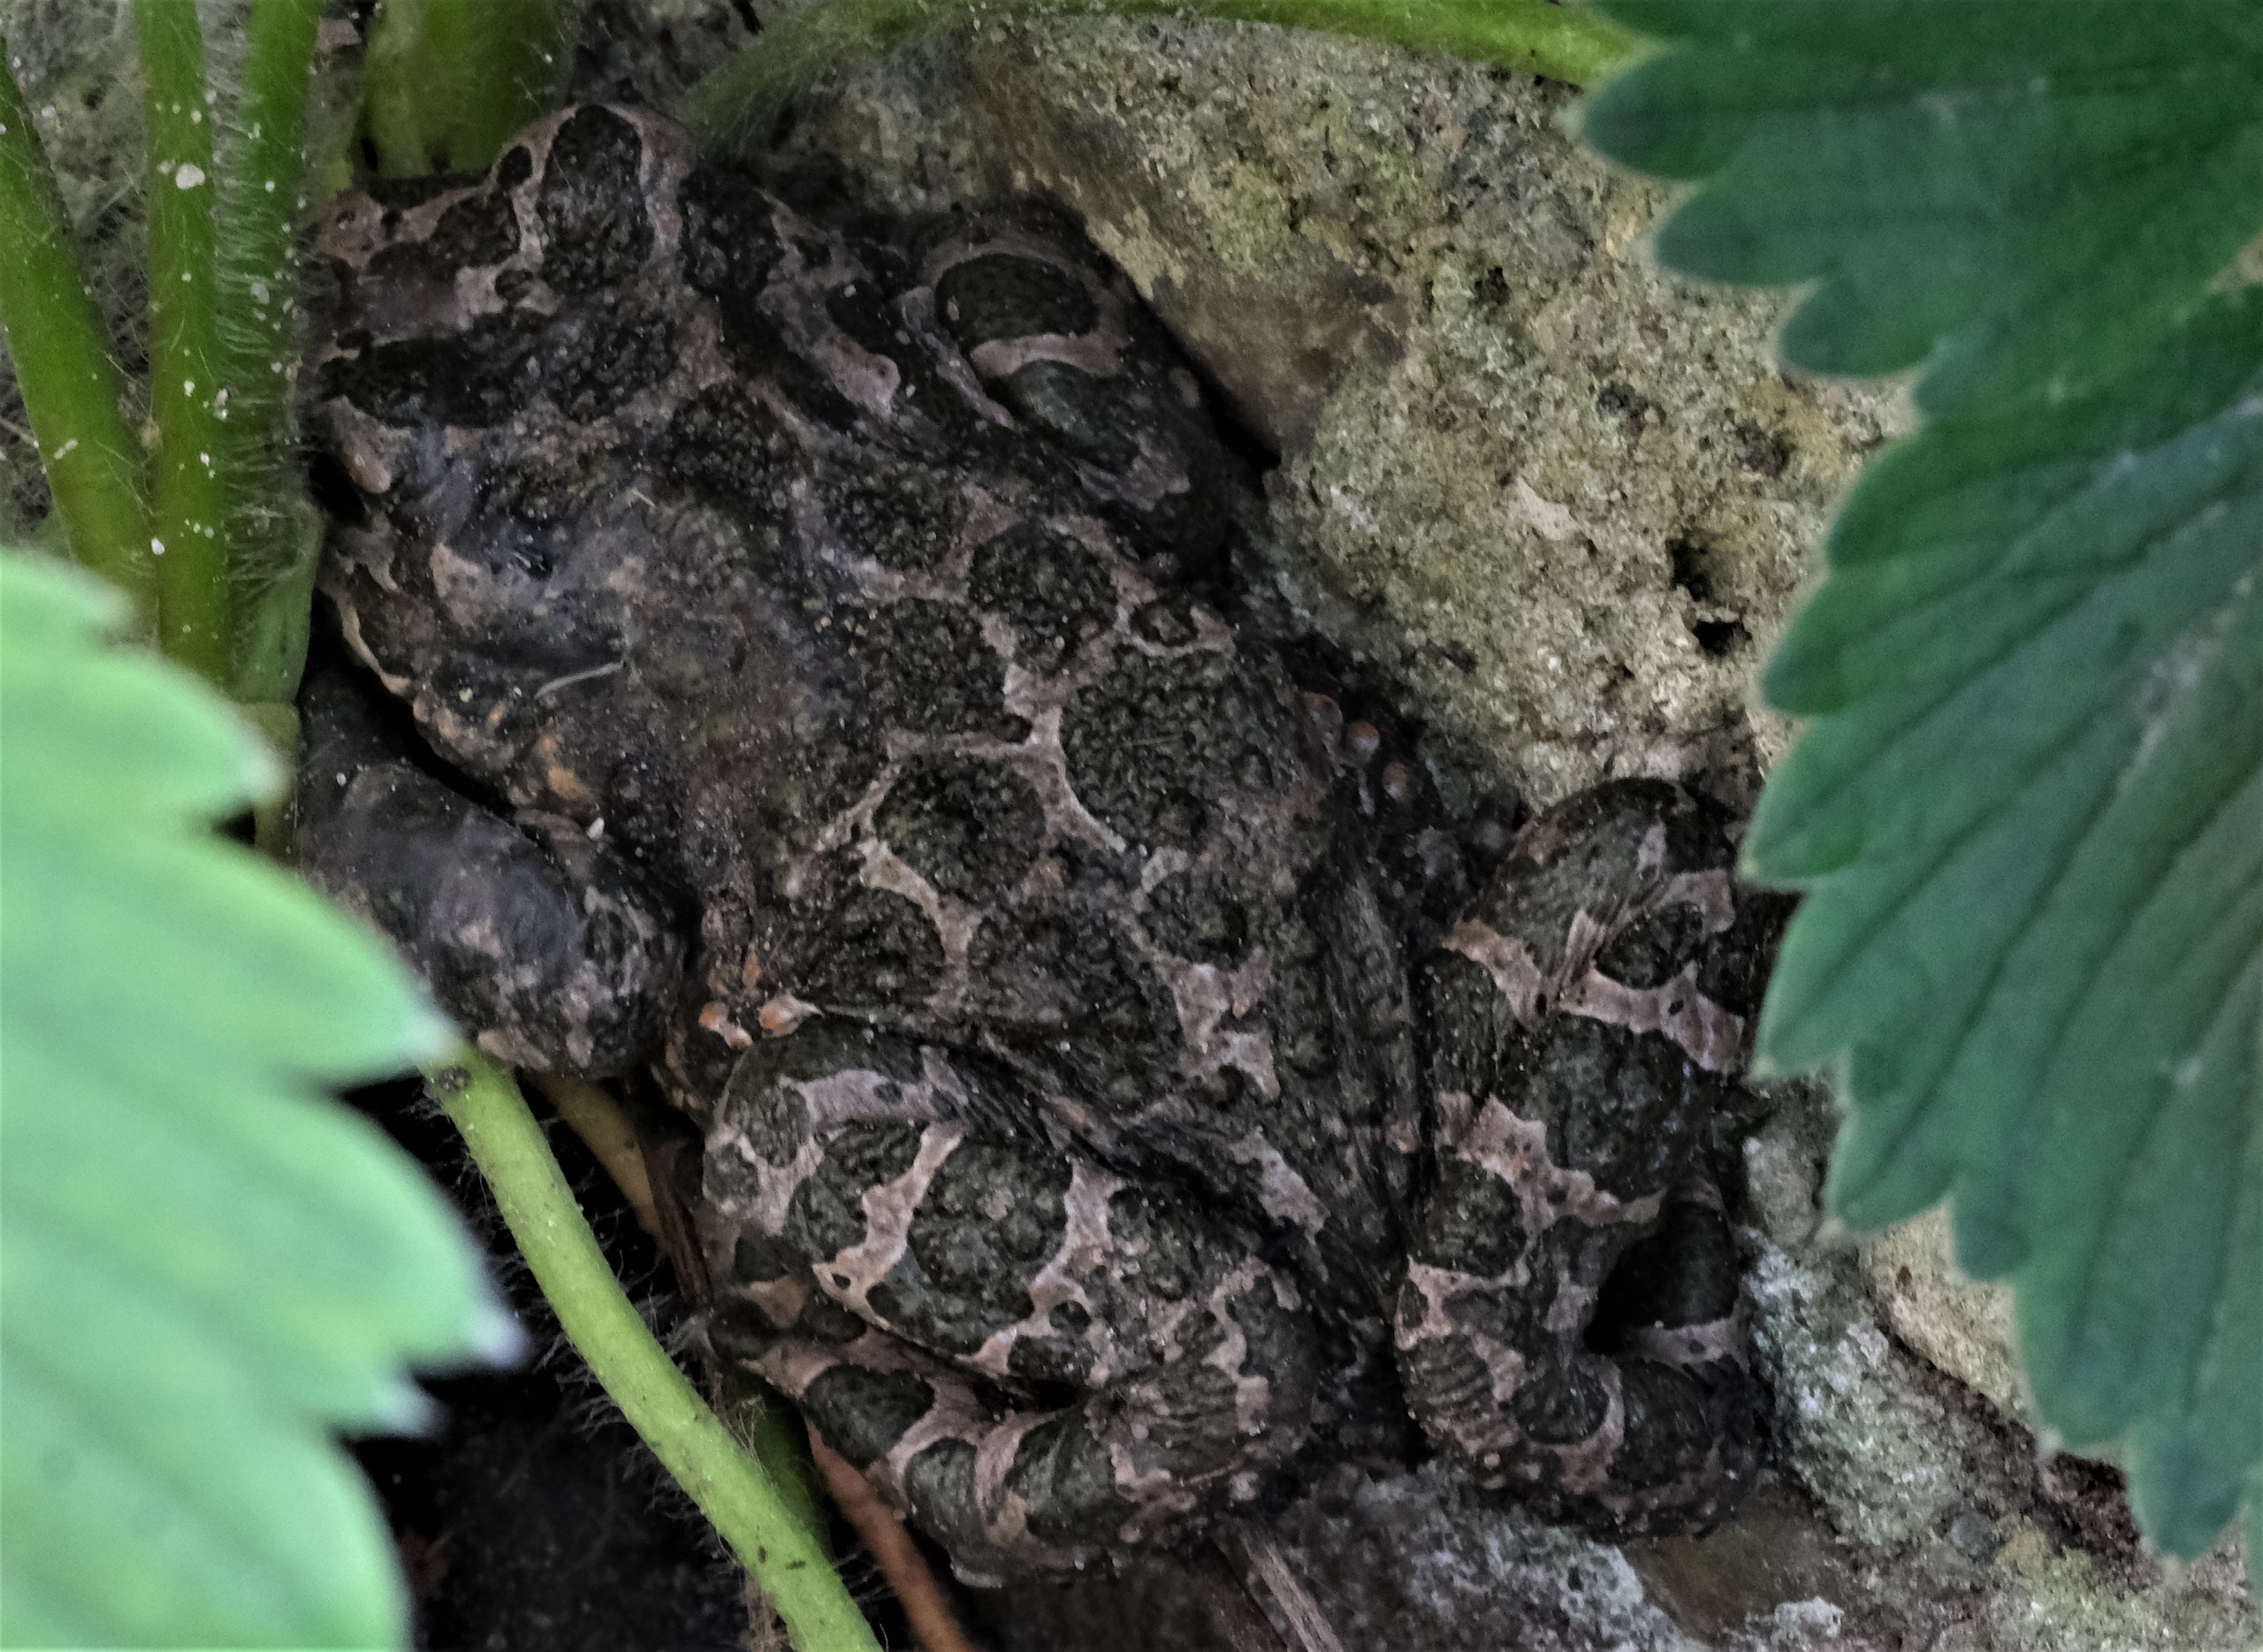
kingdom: Animalia
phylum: Chordata
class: Amphibia
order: Anura
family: Bufonidae
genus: Bufotes
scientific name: Bufotes viridis
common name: Grønbroget tudse
